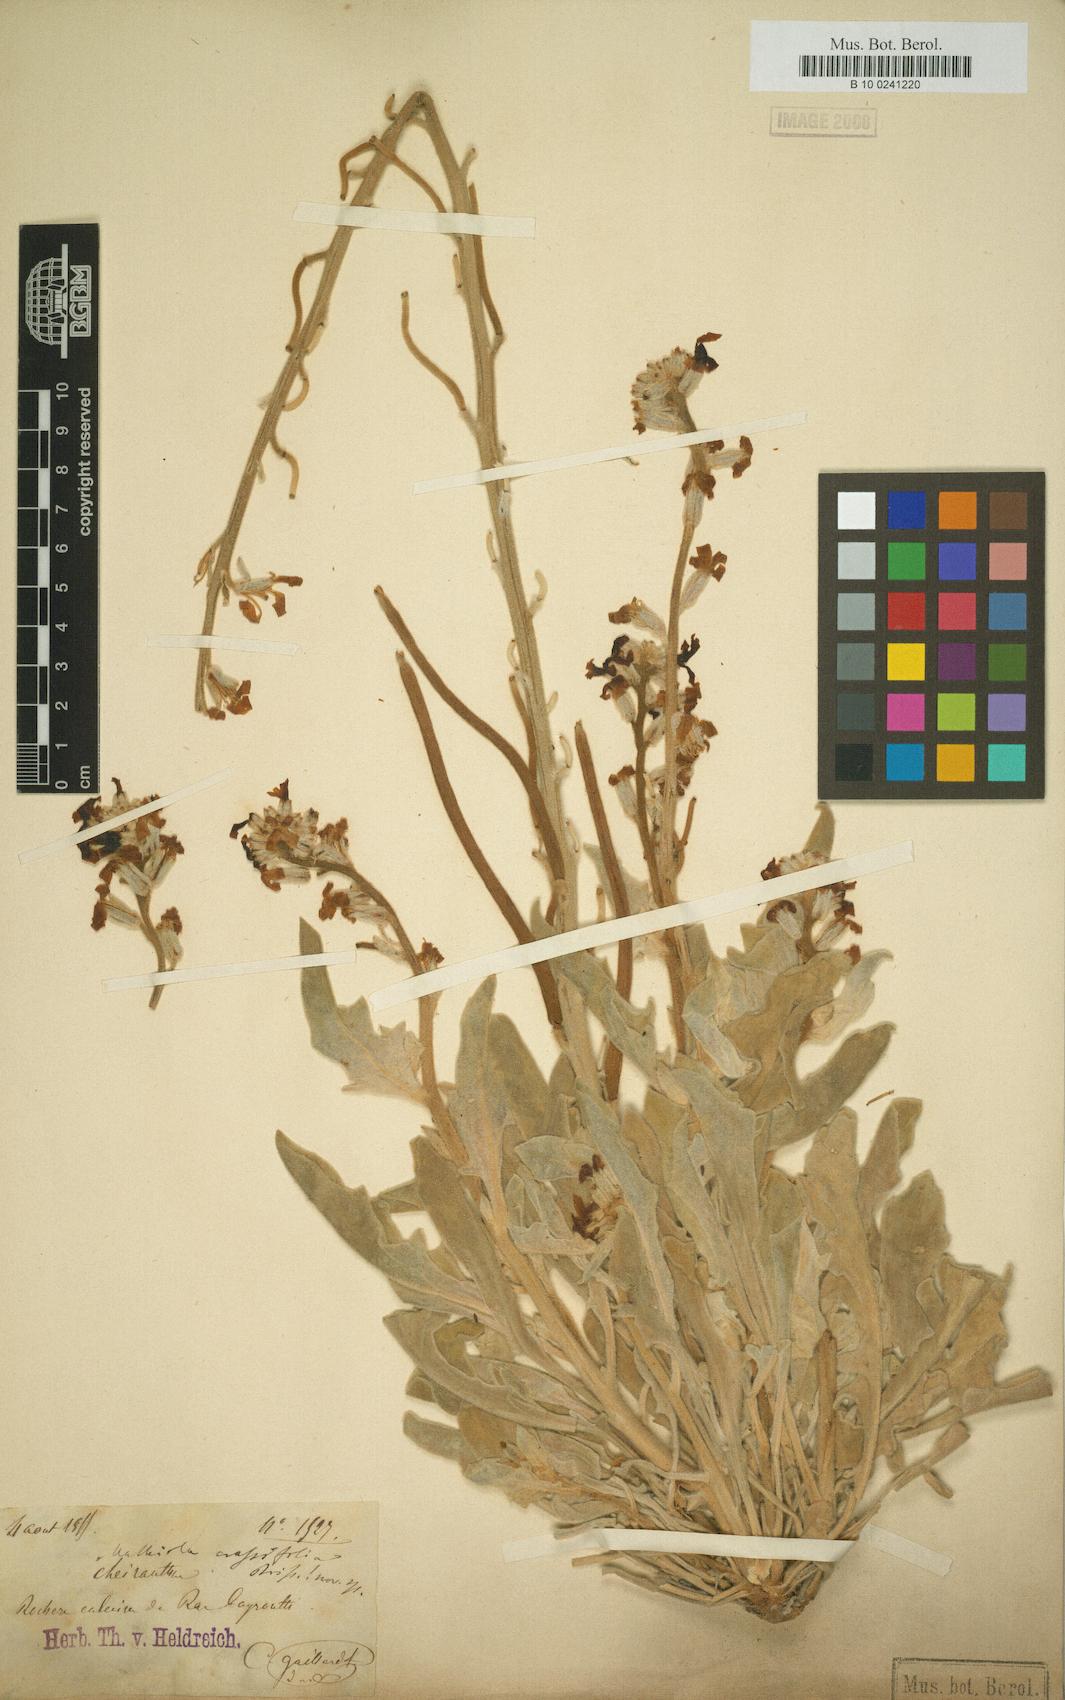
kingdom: Plantae
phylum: Tracheophyta
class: Magnoliopsida
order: Brassicales
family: Brassicaceae
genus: Matthiola
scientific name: Matthiola crassifolia
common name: Thick-leaved stock of beirut
